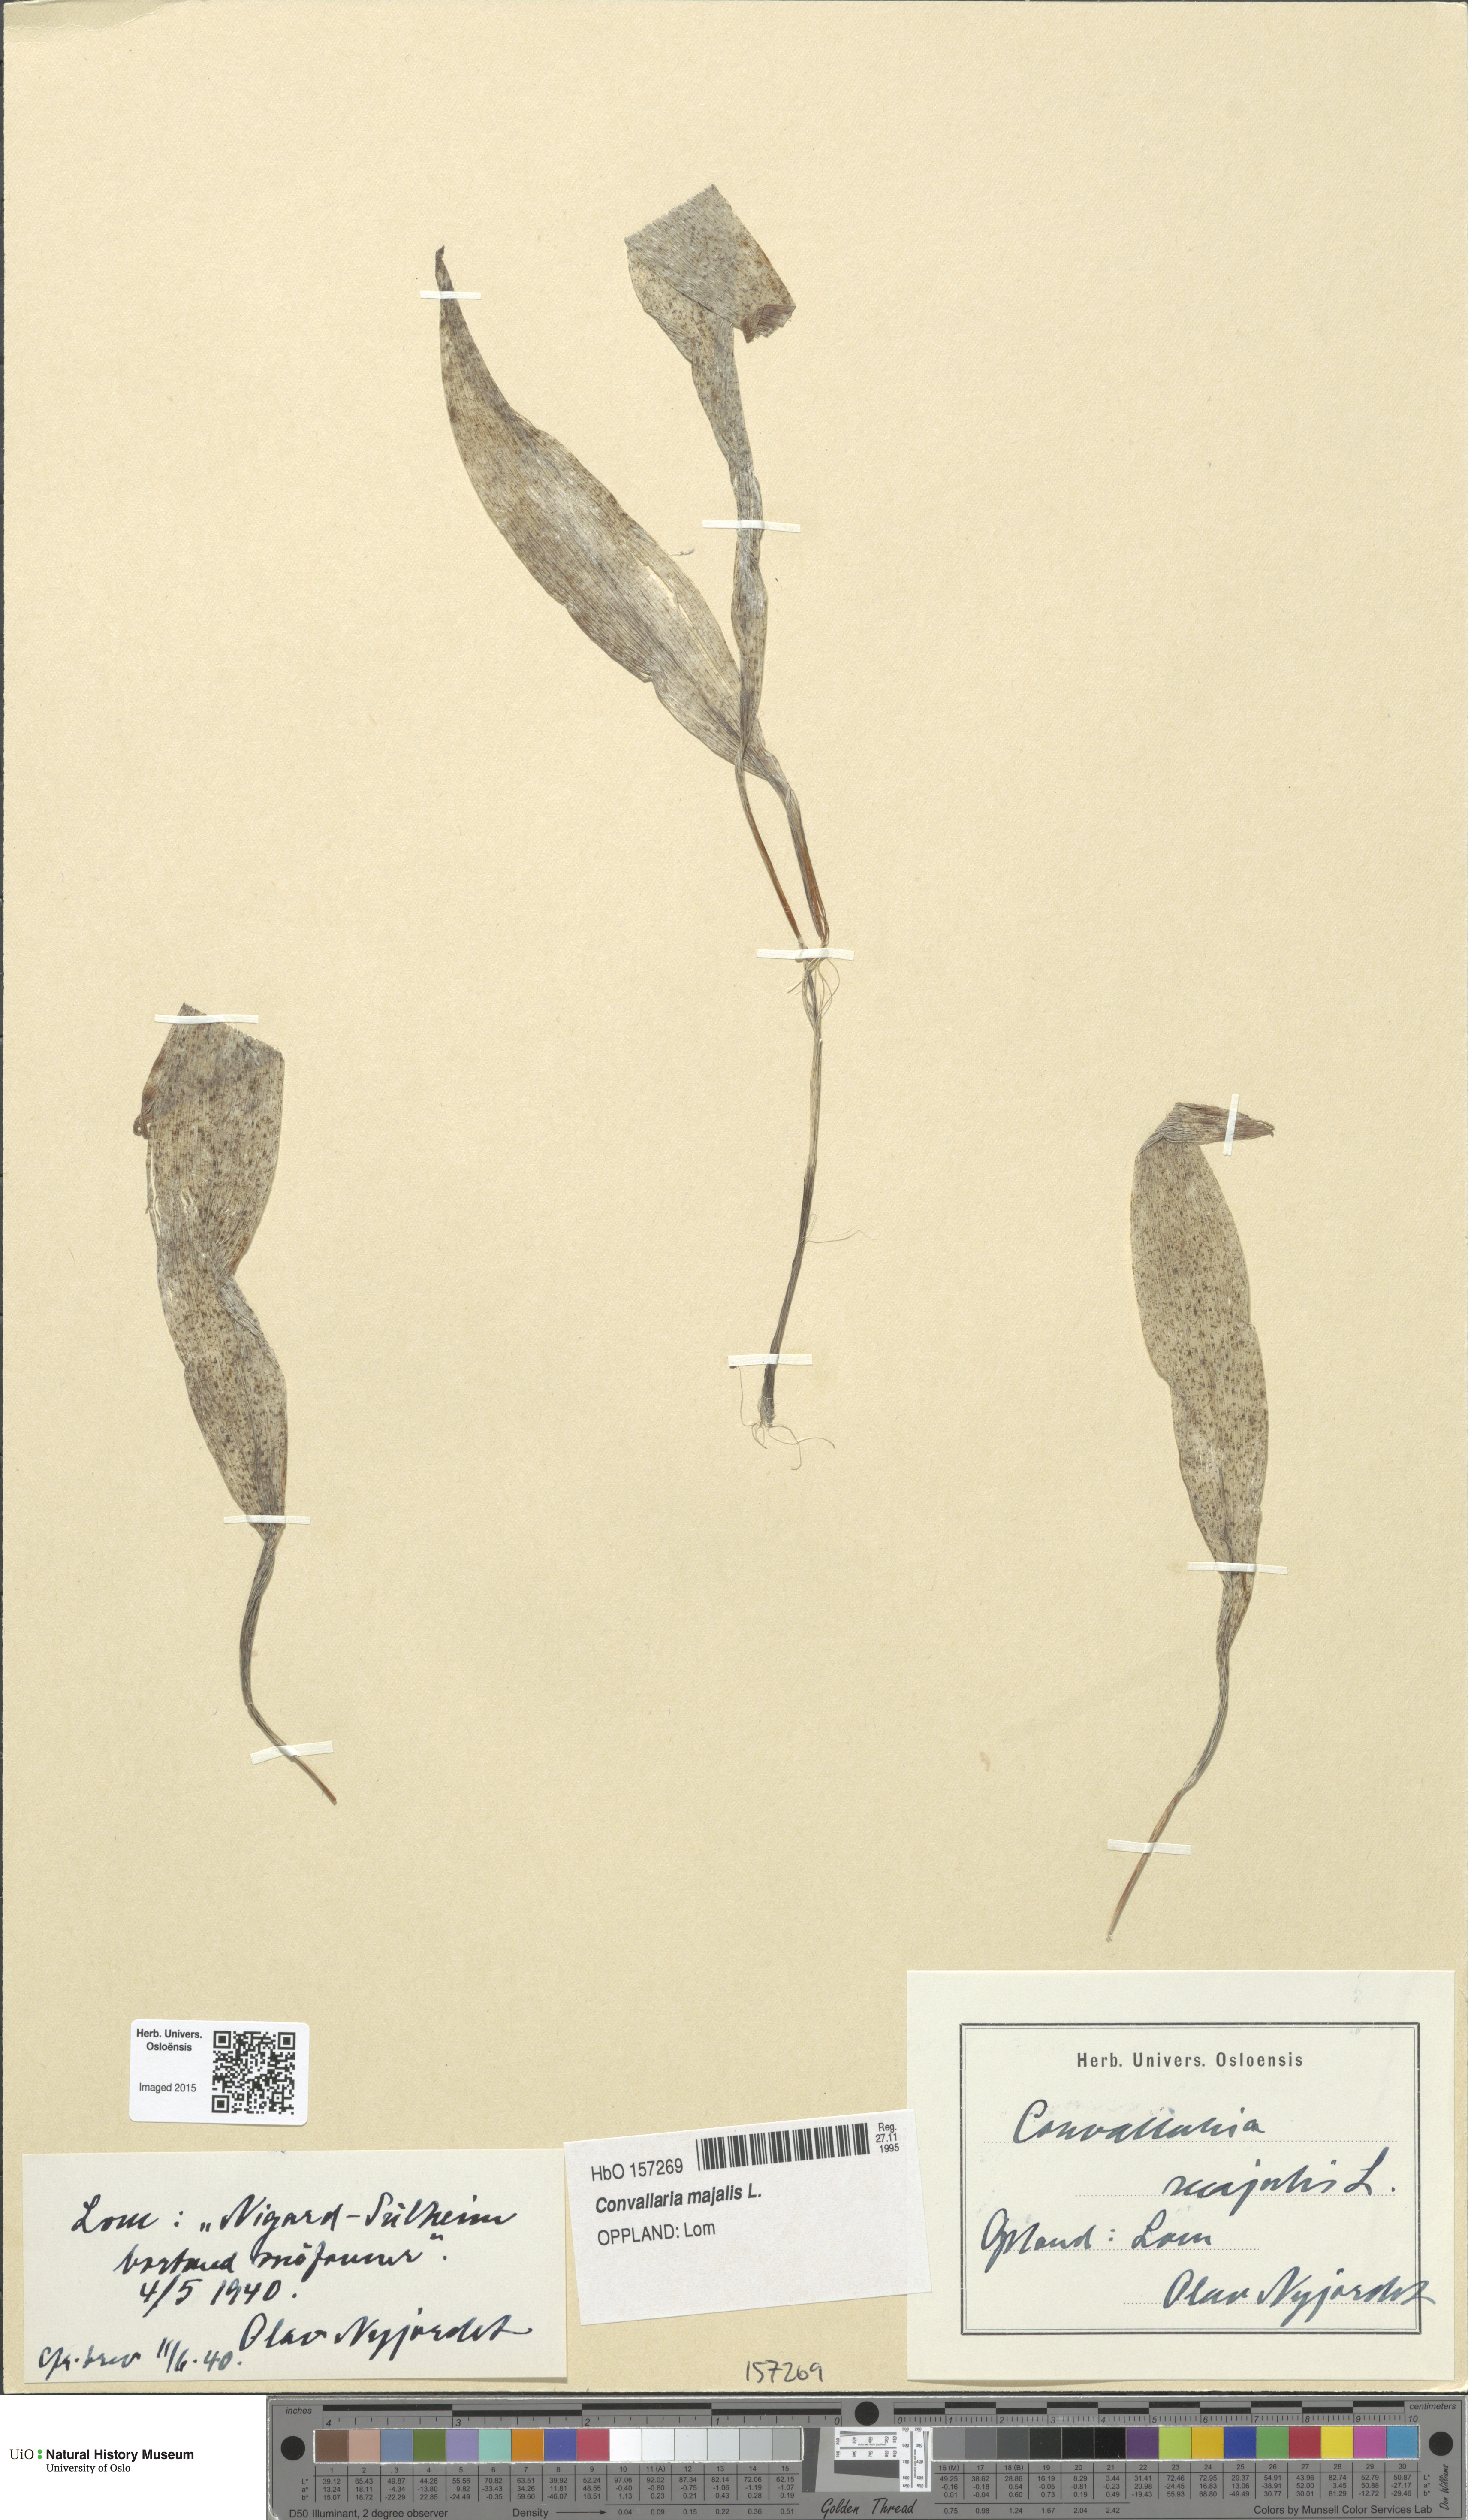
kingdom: Plantae
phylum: Tracheophyta
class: Liliopsida
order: Asparagales
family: Asparagaceae
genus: Convallaria
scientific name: Convallaria majalis
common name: Lily-of-the-valley
